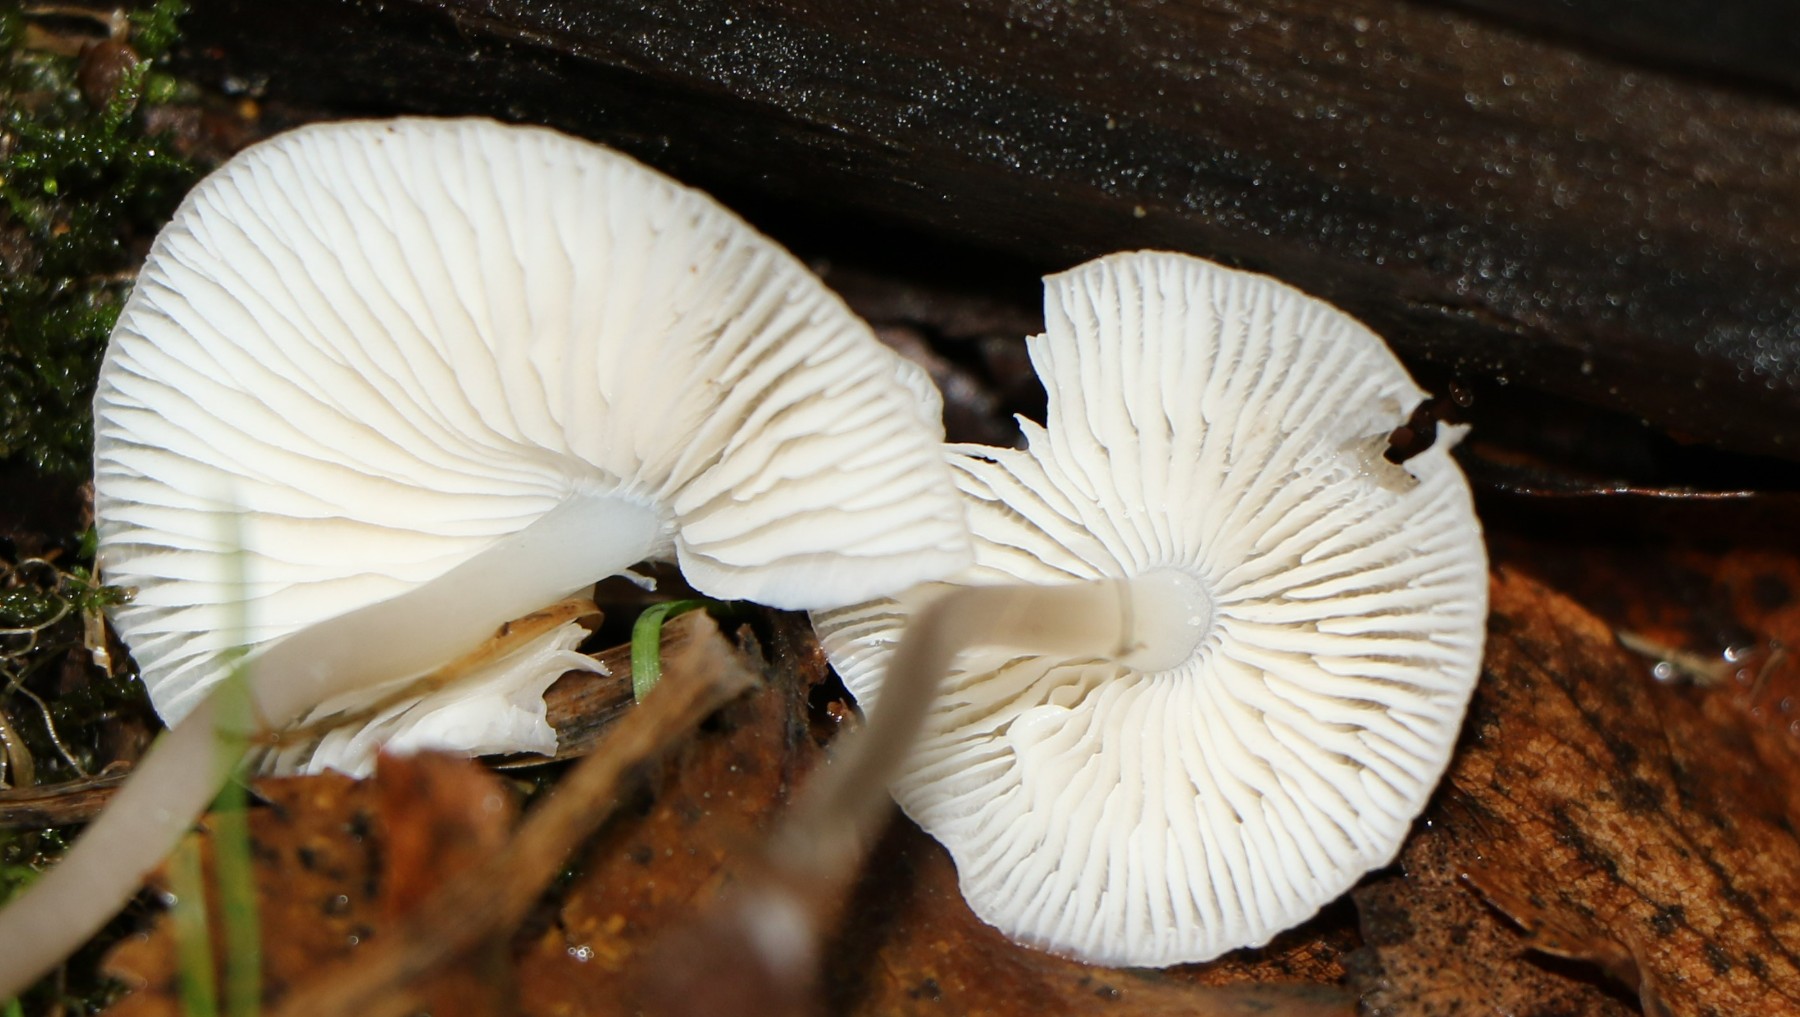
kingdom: Fungi
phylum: Basidiomycota
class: Agaricomycetes
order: Agaricales
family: Mycenaceae
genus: Mycena
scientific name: Mycena
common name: huesvamp
